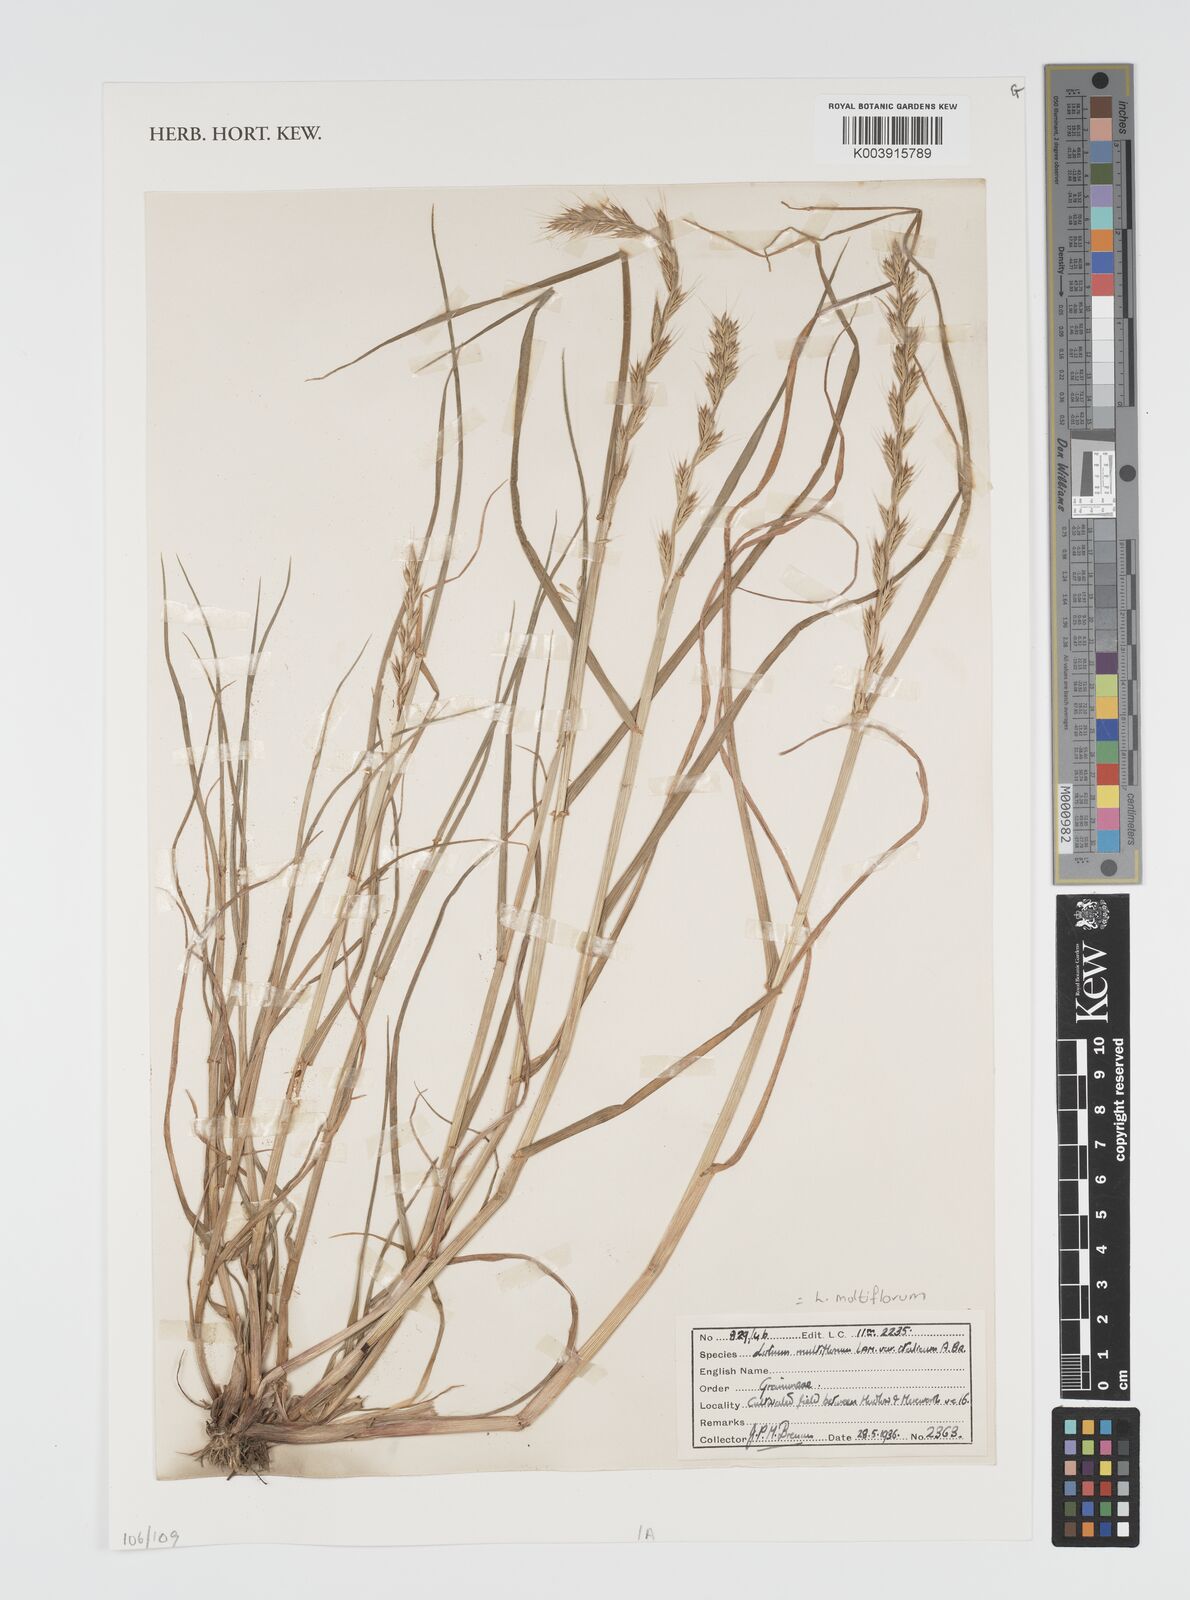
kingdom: Plantae
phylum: Tracheophyta
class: Liliopsida
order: Poales
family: Poaceae
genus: Lolium
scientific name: Lolium multiflorum
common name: Annual ryegrass
